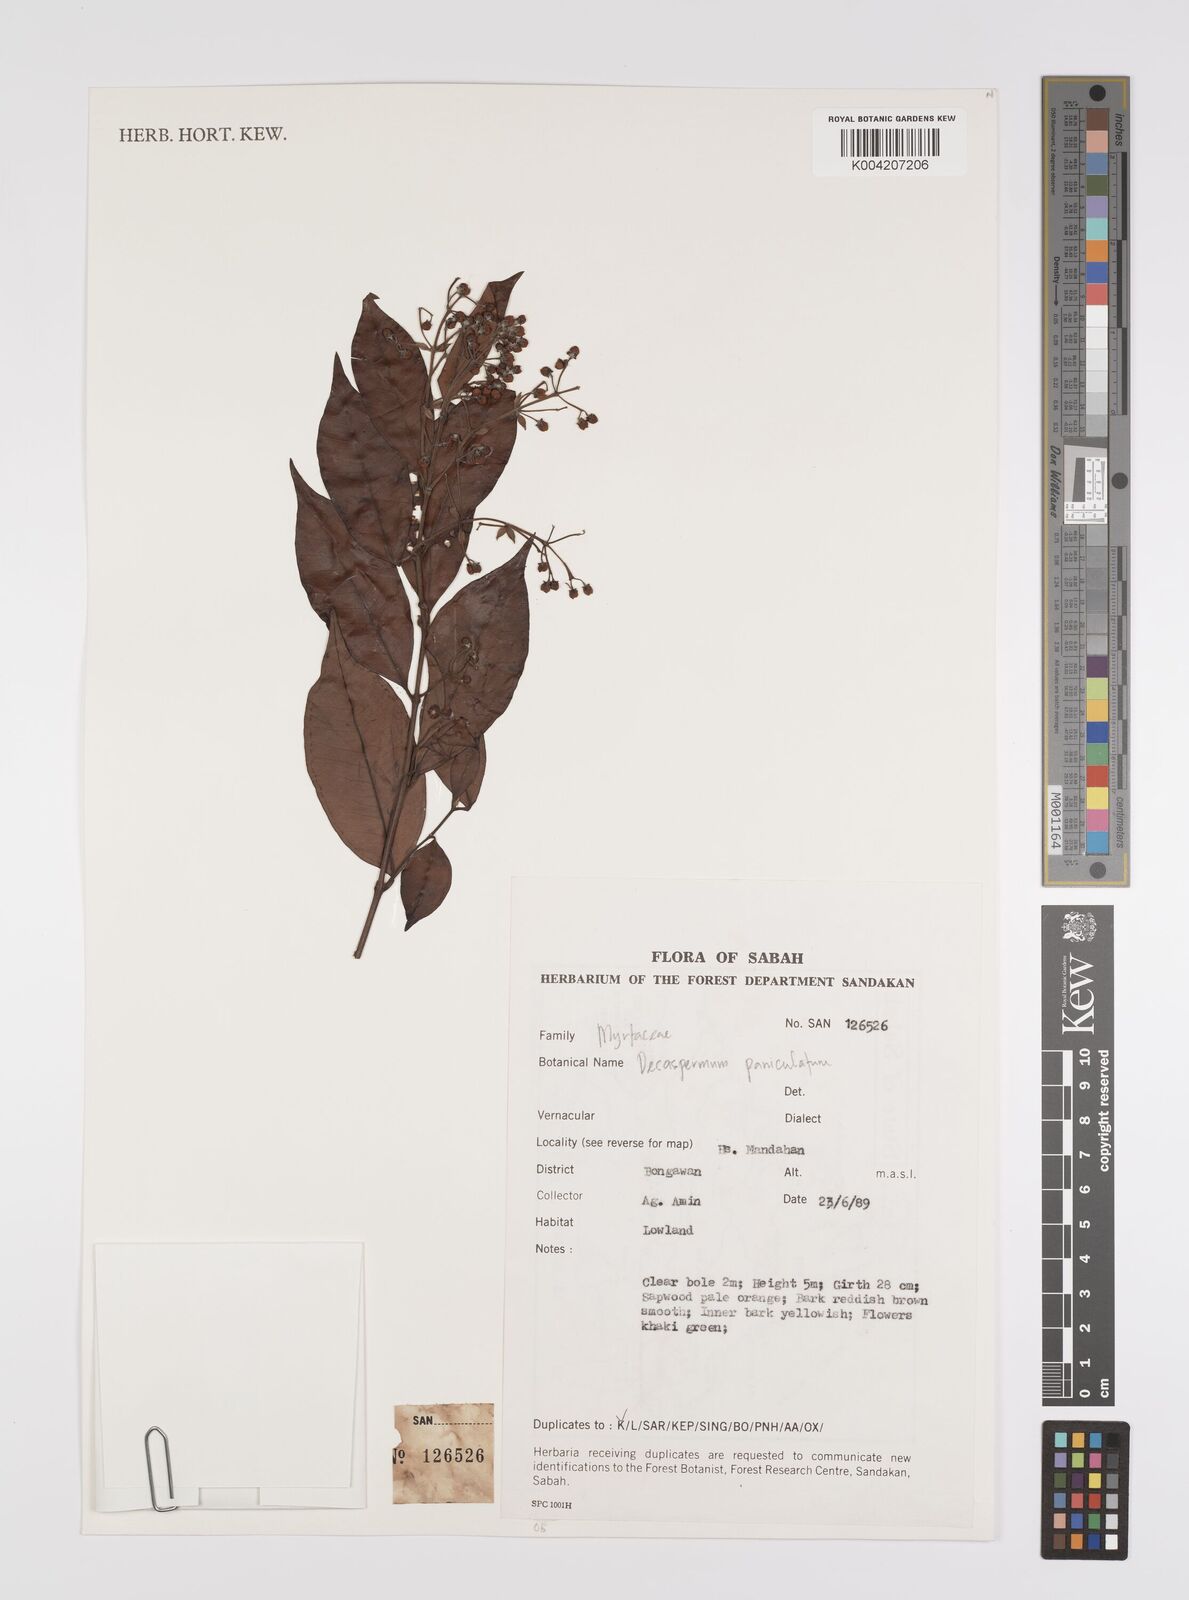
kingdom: Plantae
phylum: Tracheophyta
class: Magnoliopsida
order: Myrtales
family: Myrtaceae
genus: Decaspermum
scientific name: Decaspermum parviflorum
